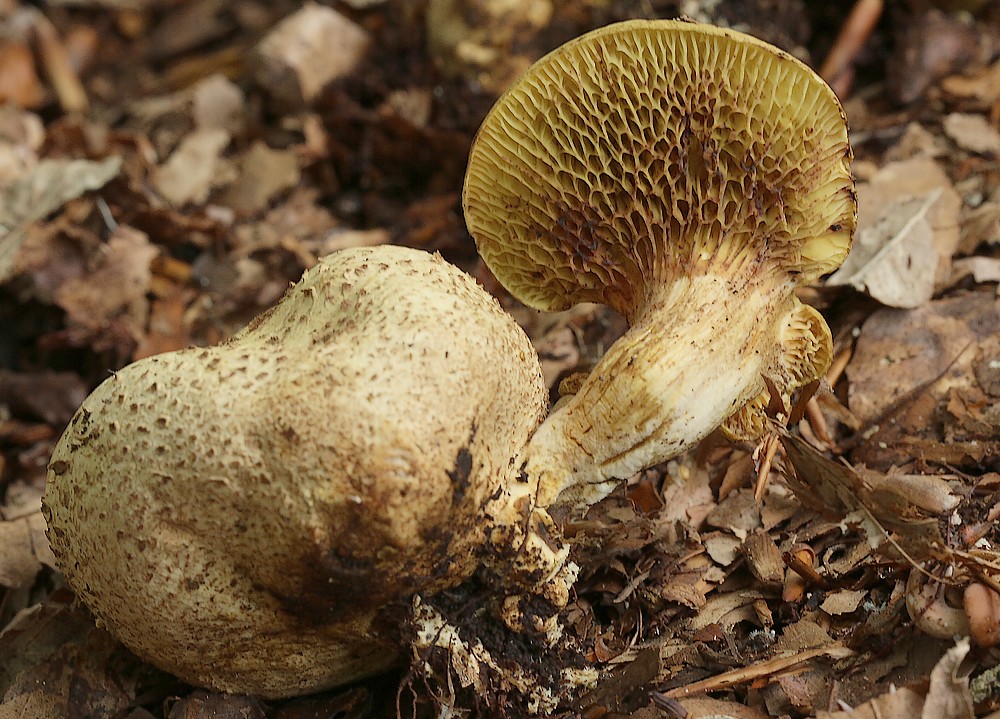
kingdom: Fungi
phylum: Basidiomycota
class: Agaricomycetes
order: Boletales
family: Boletaceae
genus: Pseudoboletus
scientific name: Pseudoboletus parasiticus
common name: snyltende rørhat
